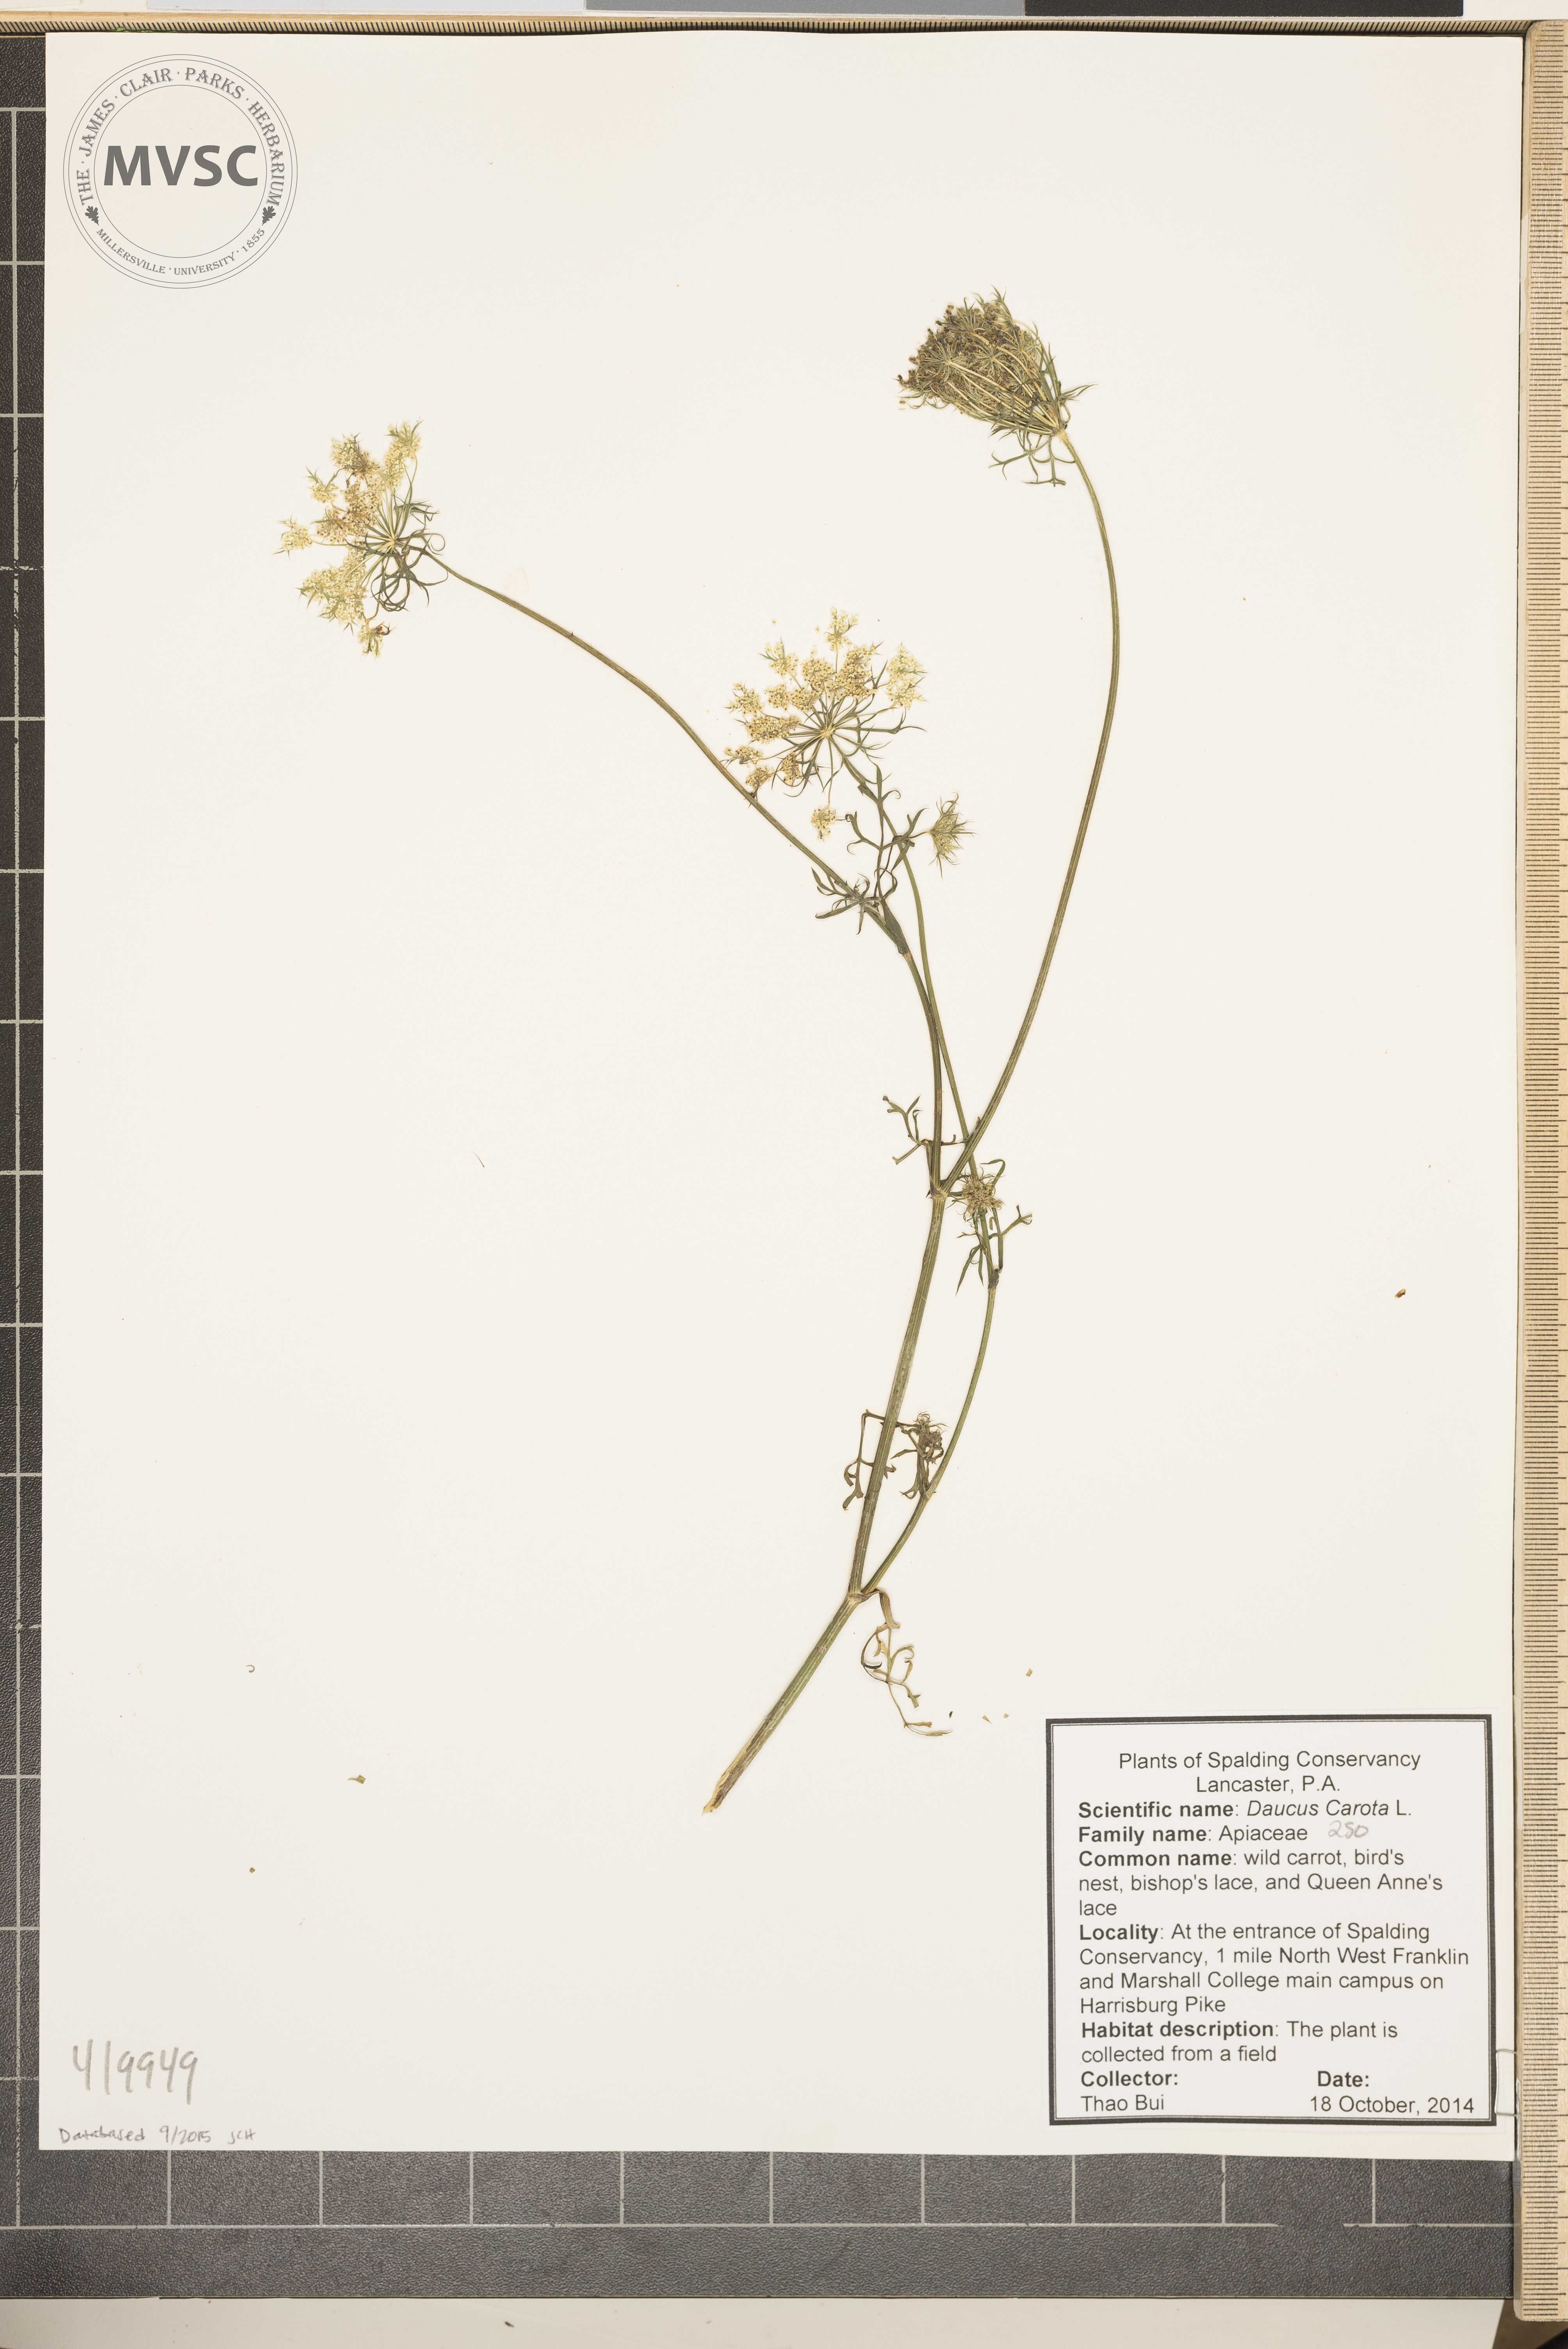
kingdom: Plantae
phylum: Tracheophyta
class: Magnoliopsida
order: Apiales
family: Apiaceae
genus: Daucus
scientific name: Daucus carota
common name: Queen Anne's lace
